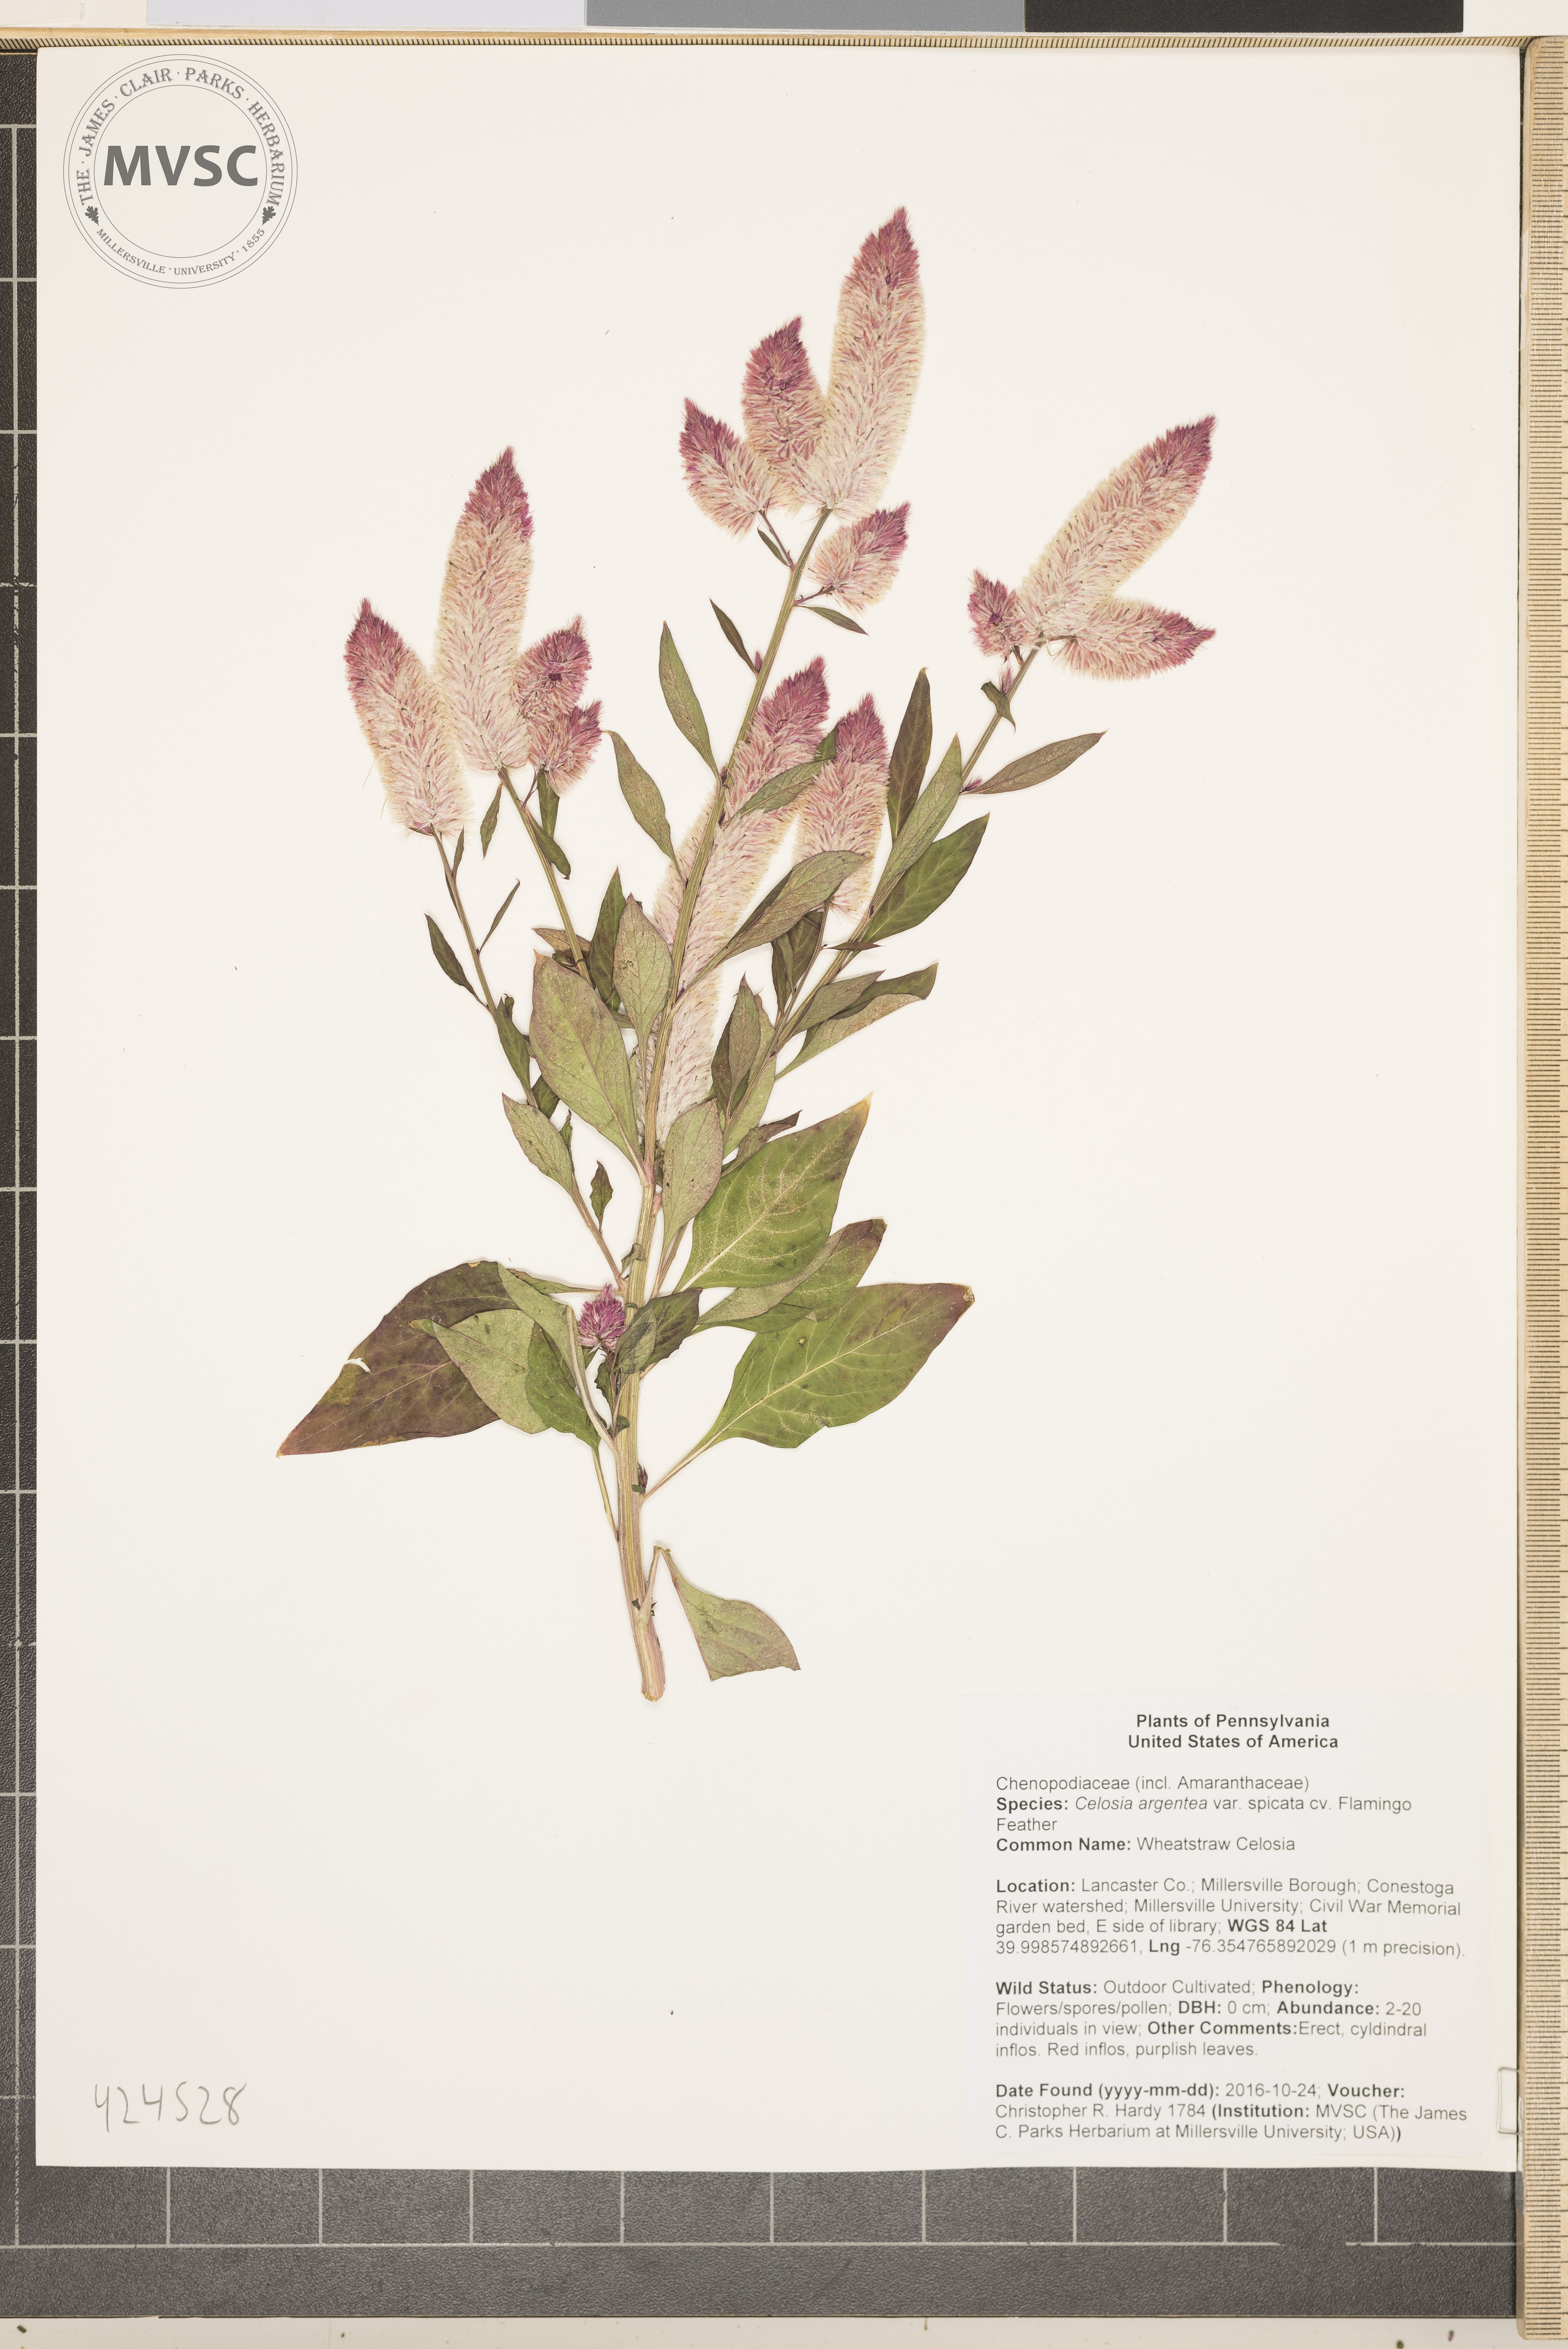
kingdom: Plantae
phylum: Tracheophyta
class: Magnoliopsida
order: Caryophyllales
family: Amaranthaceae
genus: Celosia
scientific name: Celosia argentea
